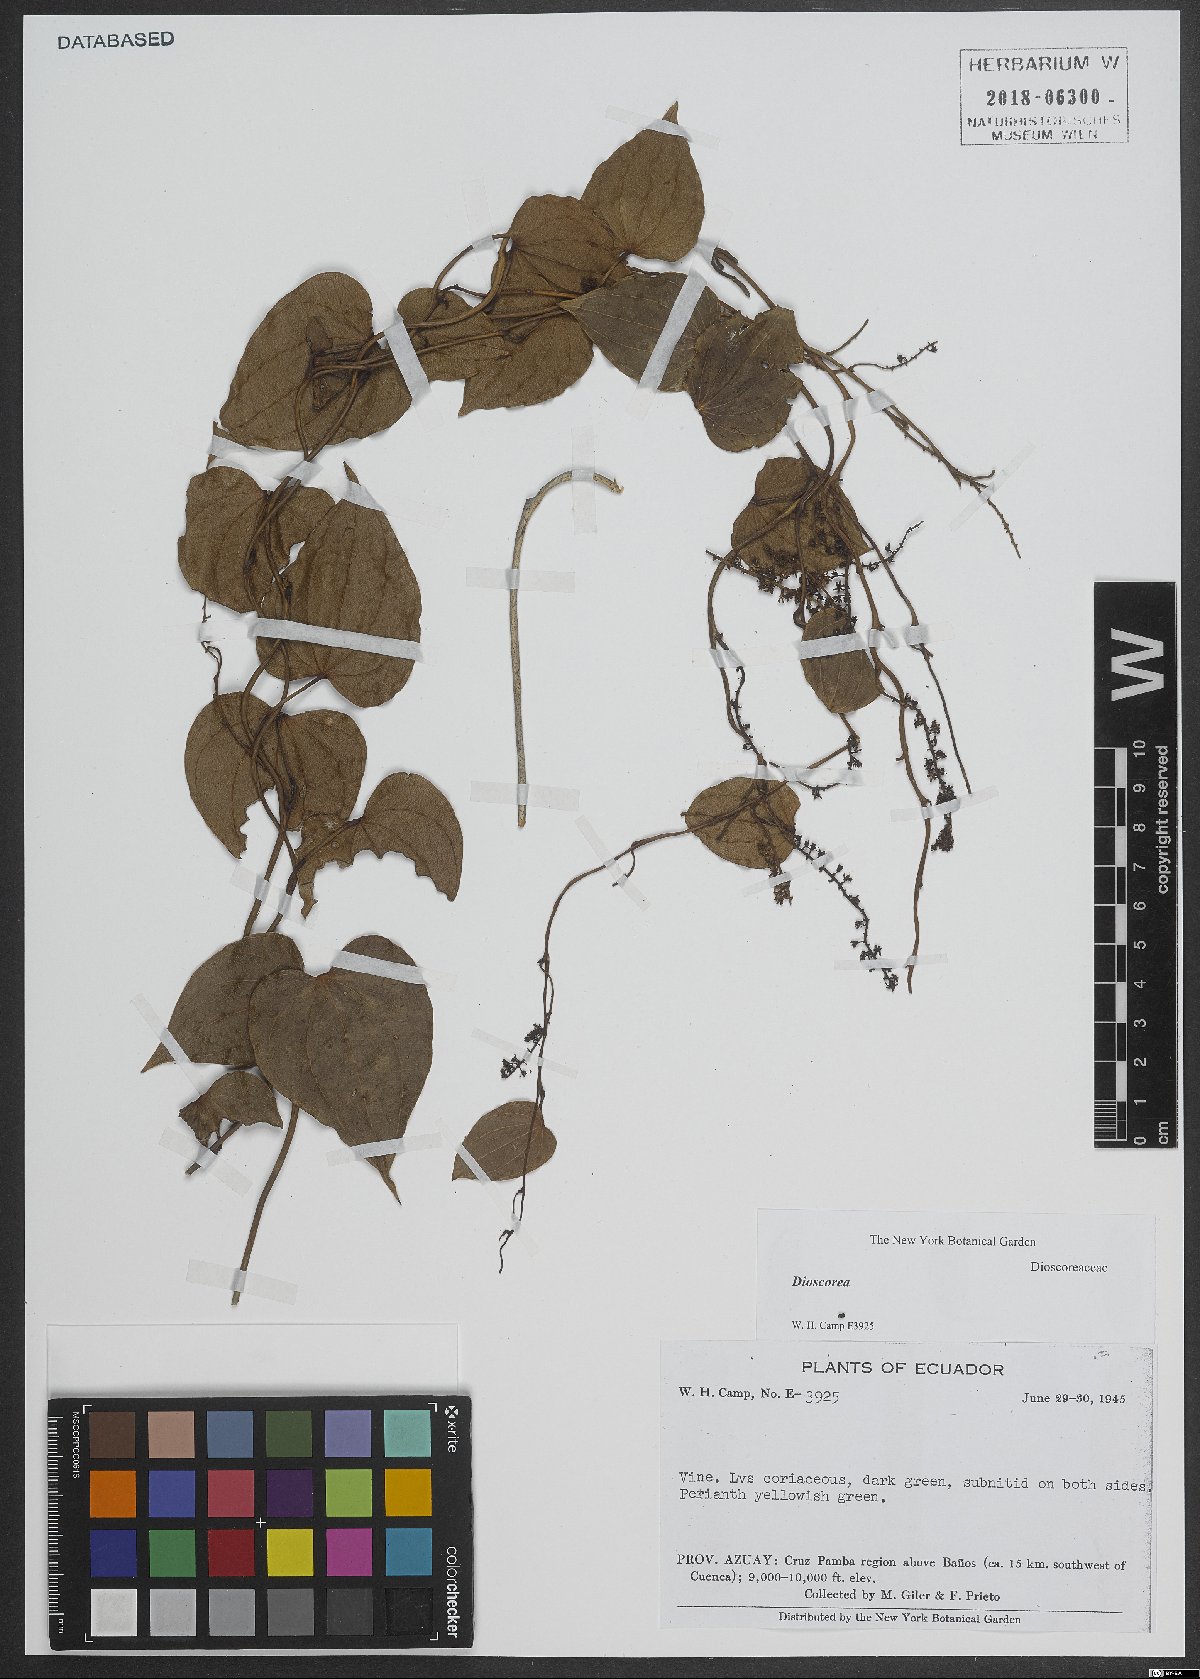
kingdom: Plantae
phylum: Tracheophyta
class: Liliopsida
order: Dioscoreales
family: Dioscoreaceae
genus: Dioscorea
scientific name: Dioscorea
